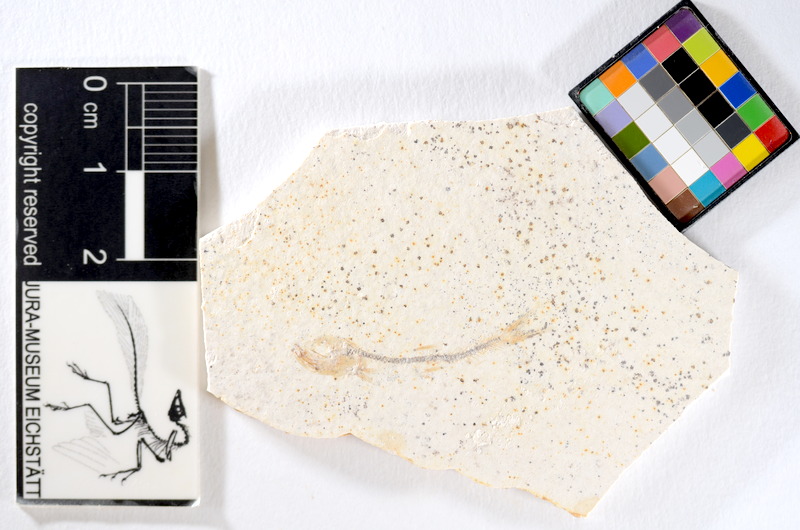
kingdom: Animalia
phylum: Chordata
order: Salmoniformes
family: Orthogonikleithridae
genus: Orthogonikleithrus
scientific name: Orthogonikleithrus hoelli
